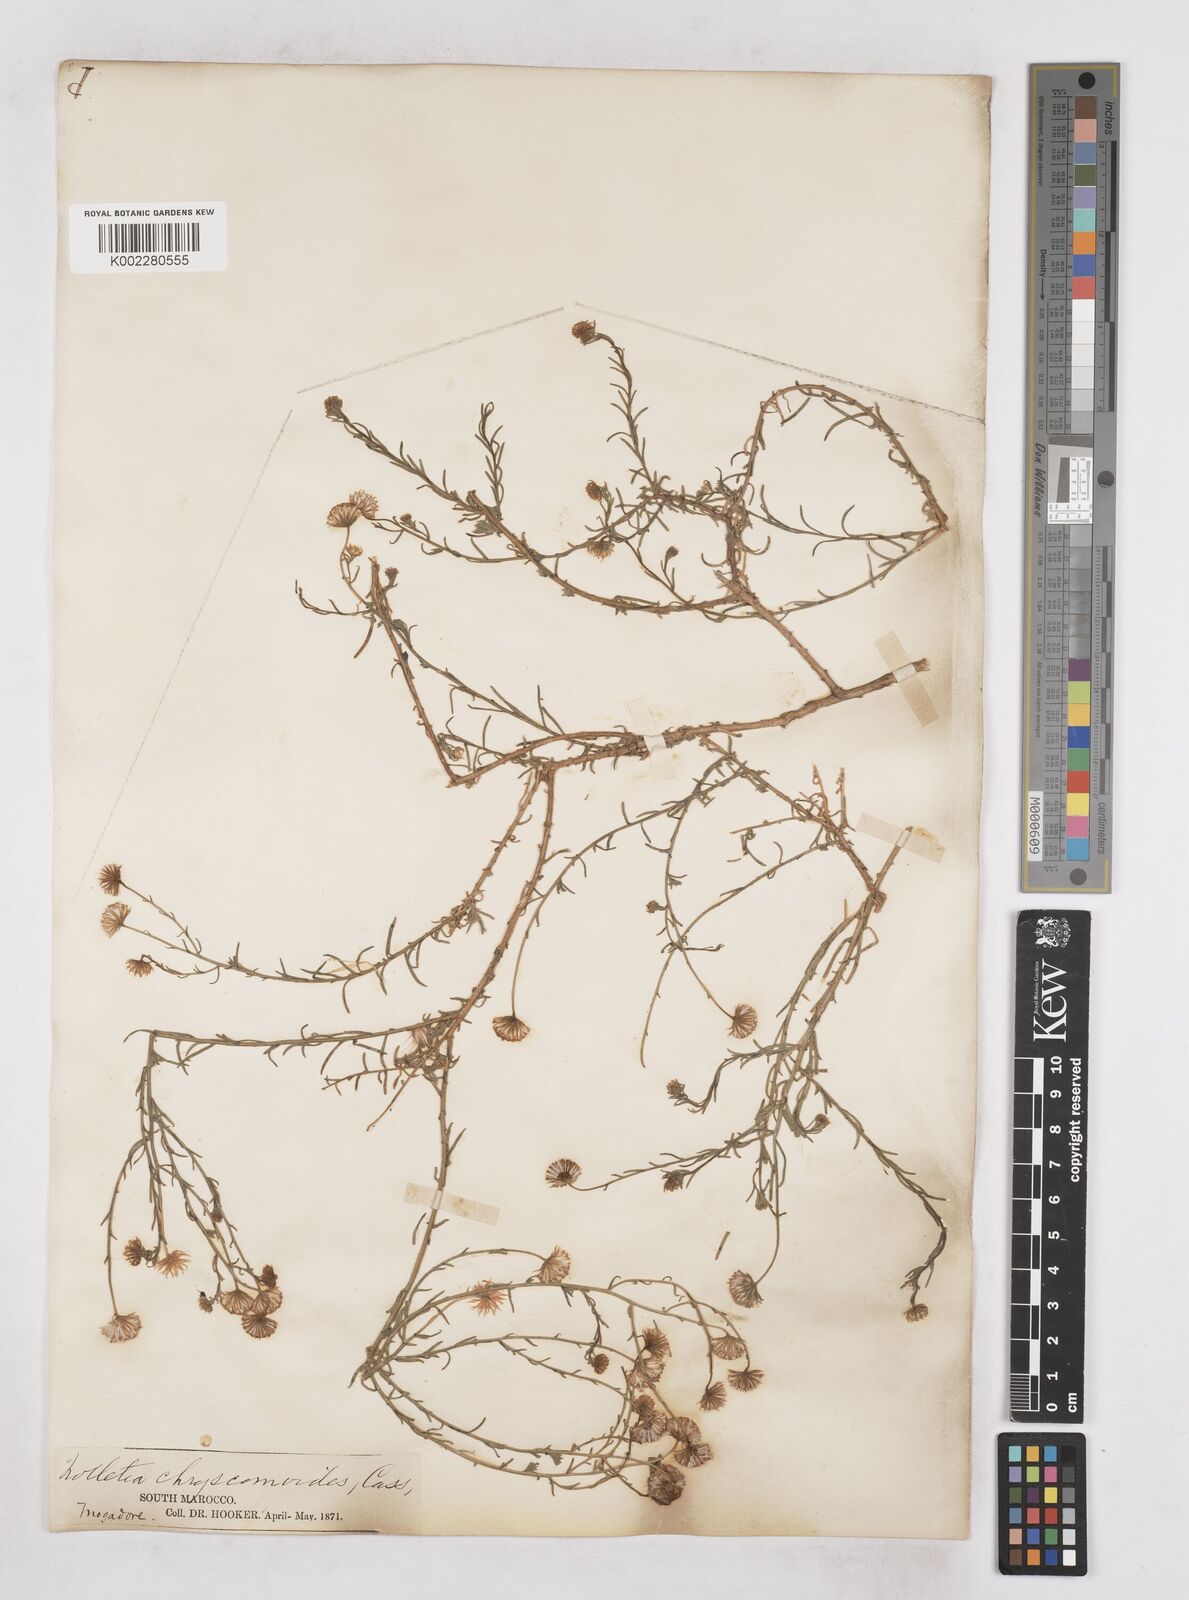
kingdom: Plantae
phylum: Tracheophyta
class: Magnoliopsida
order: Asterales
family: Asteraceae
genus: Nolletia
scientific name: Nolletia chrysocomoides
